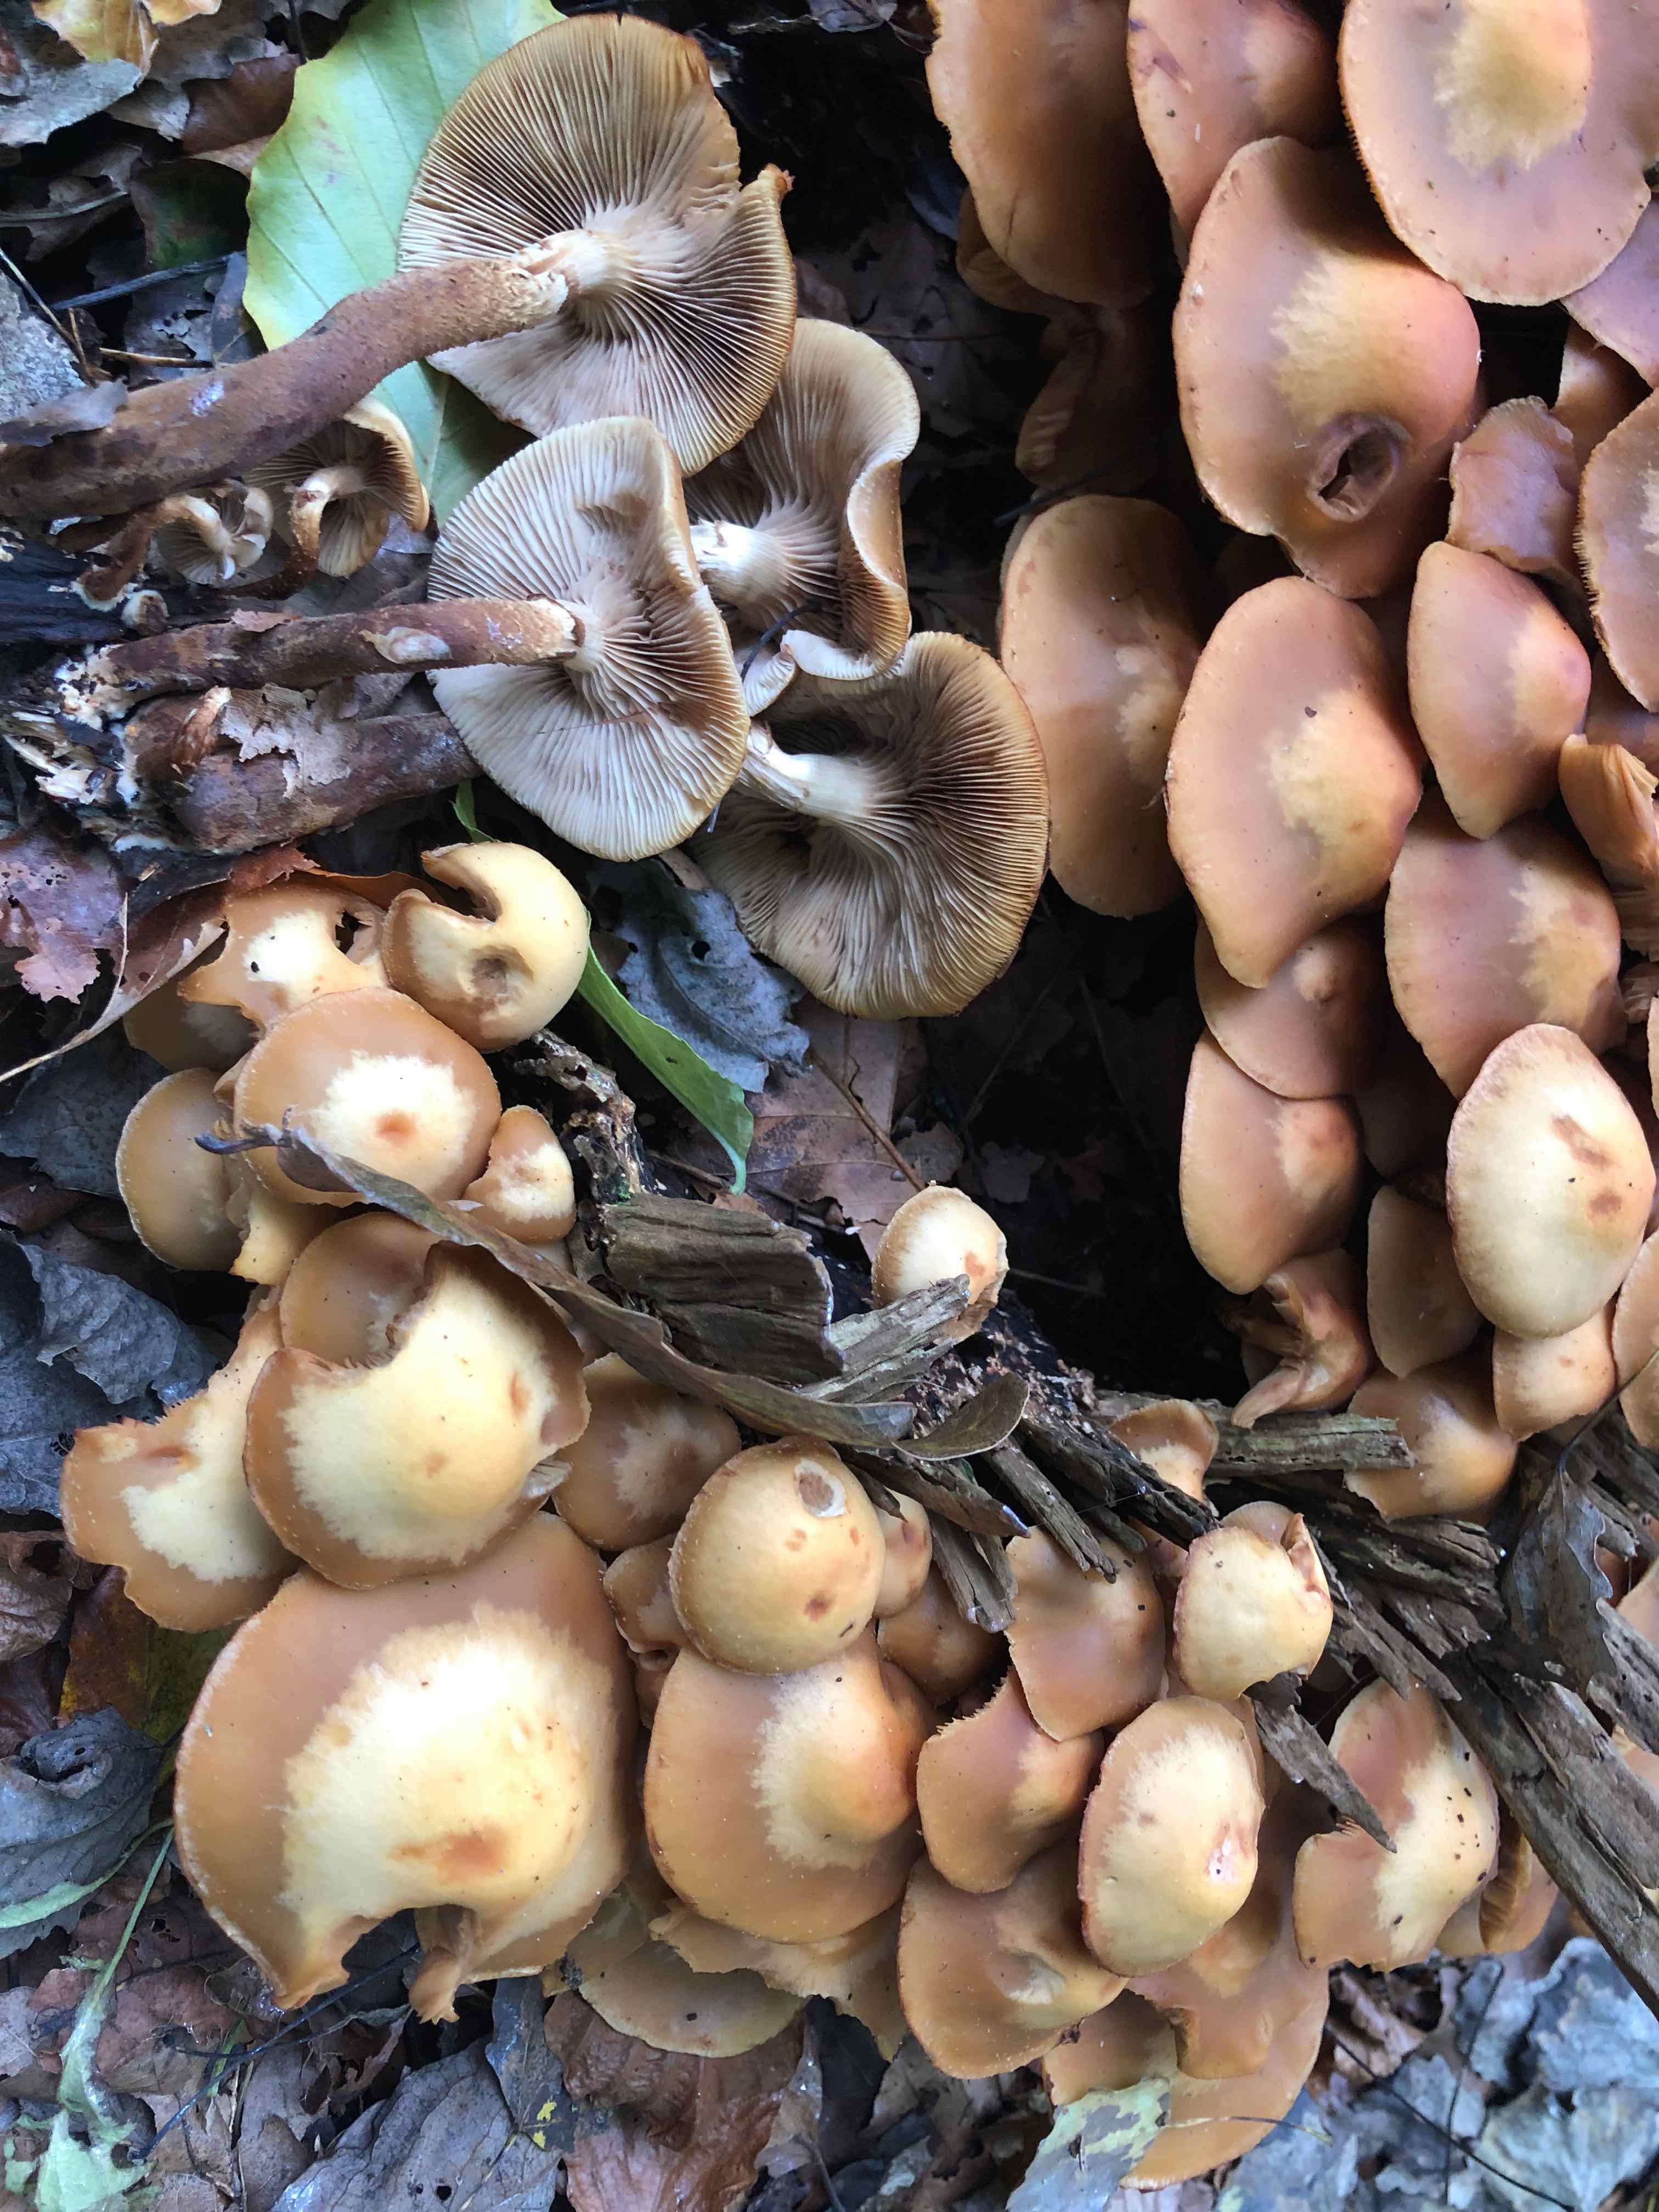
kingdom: Fungi
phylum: Basidiomycota
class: Agaricomycetes
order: Agaricales
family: Strophariaceae
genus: Kuehneromyces
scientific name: Kuehneromyces mutabilis
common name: foranderlig skælhat
